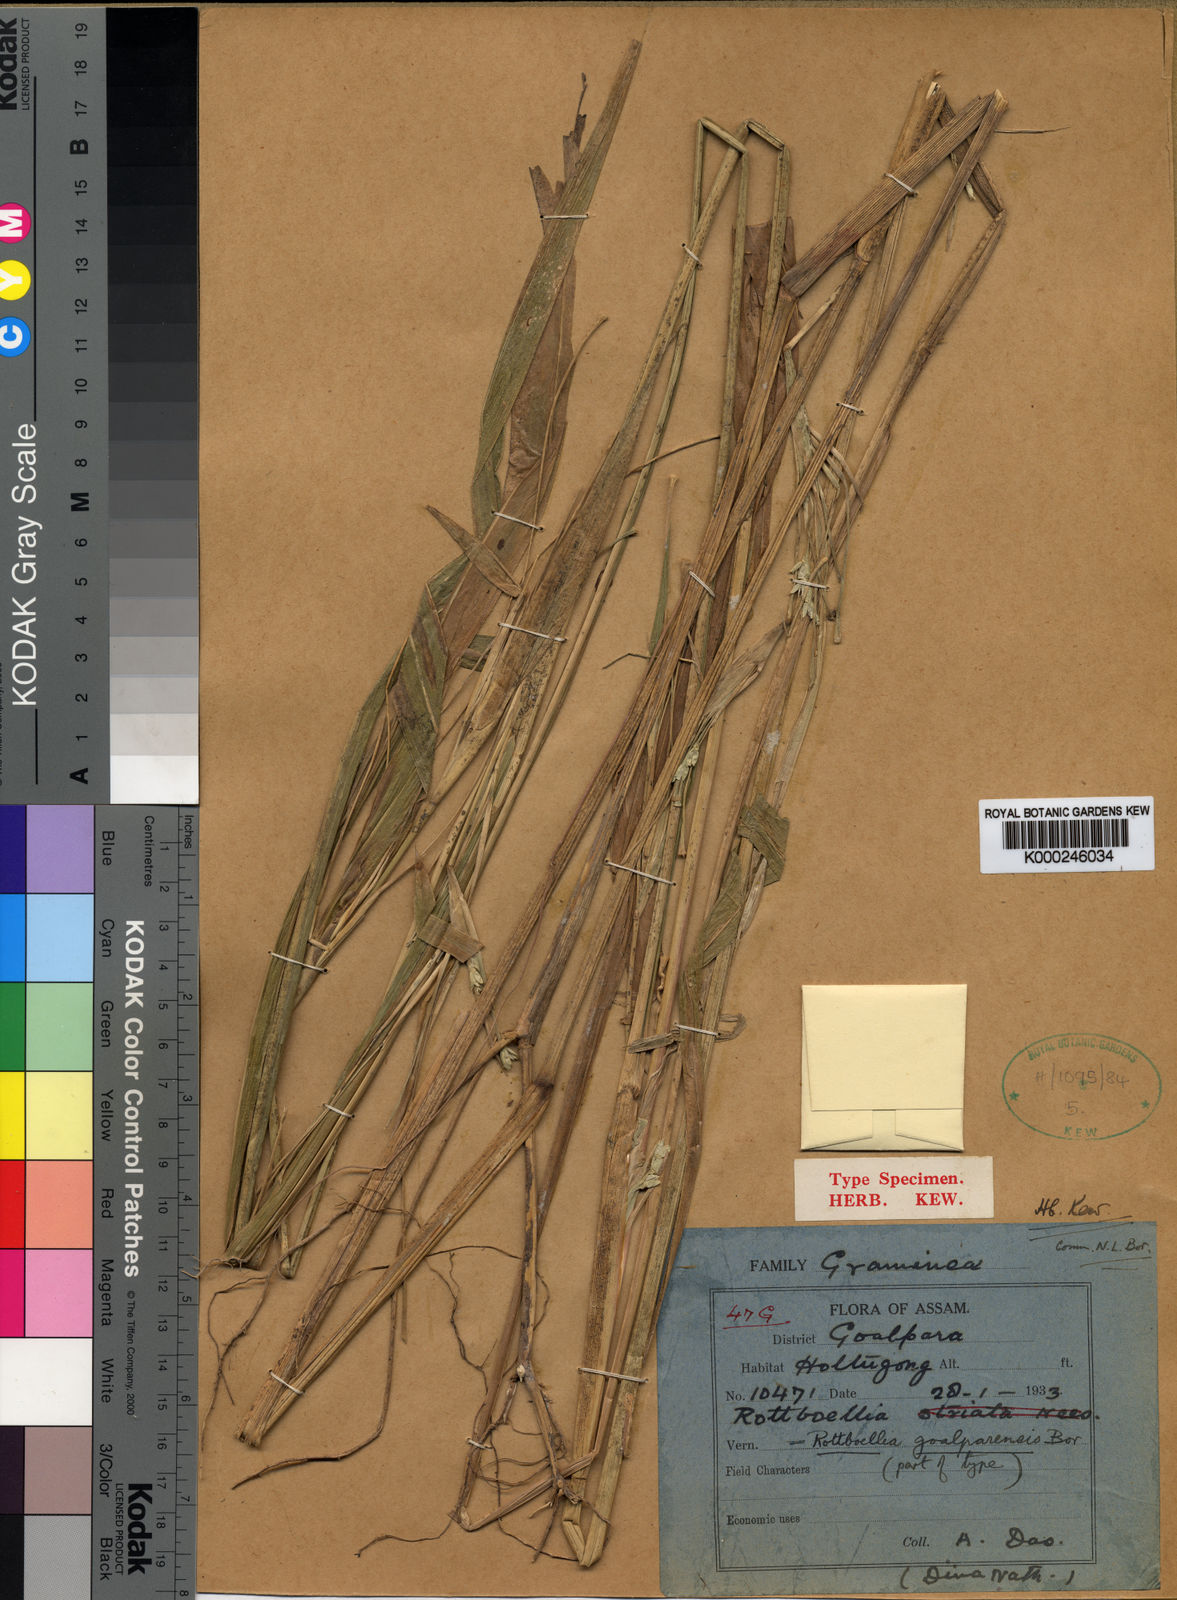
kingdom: Plantae
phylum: Tracheophyta
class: Liliopsida
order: Poales
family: Poaceae
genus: Rottboellia
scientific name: Rottboellia goalparensis
